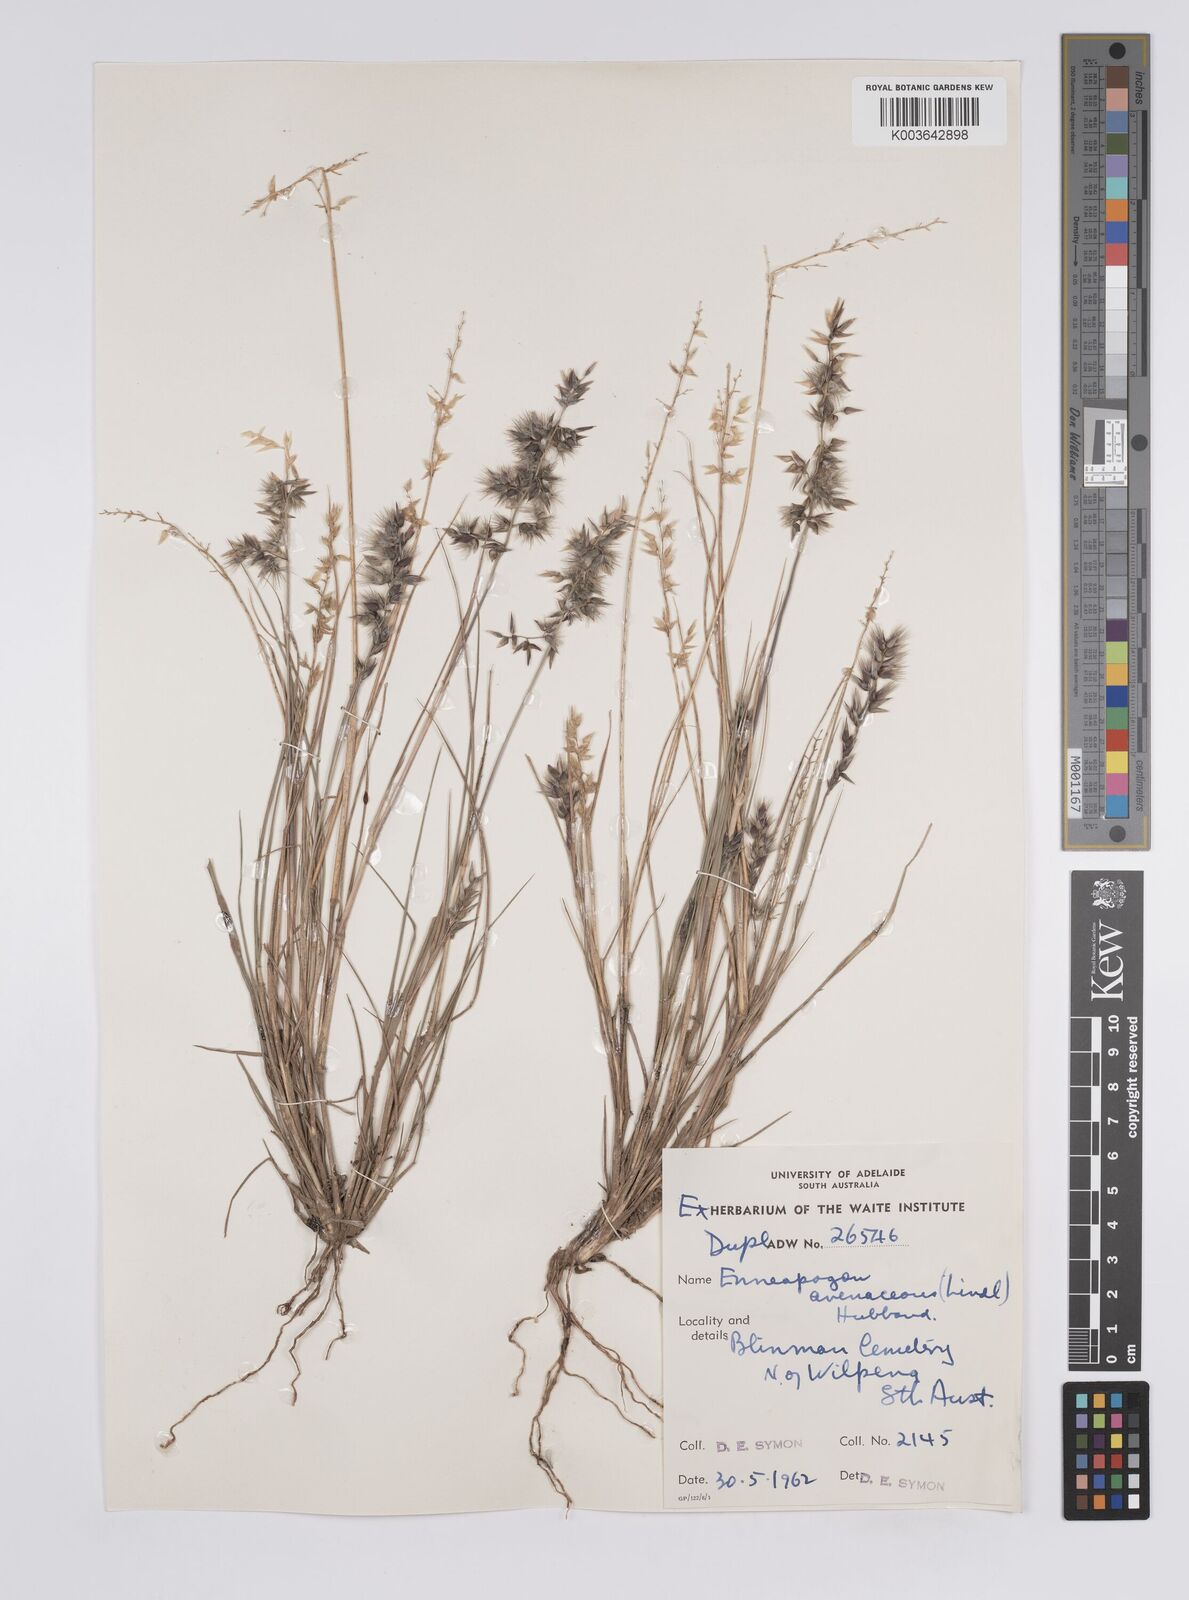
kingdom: Plantae
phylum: Tracheophyta
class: Liliopsida
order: Poales
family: Poaceae
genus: Enneapogon
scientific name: Enneapogon avenaceus
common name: Hairy oat grass
